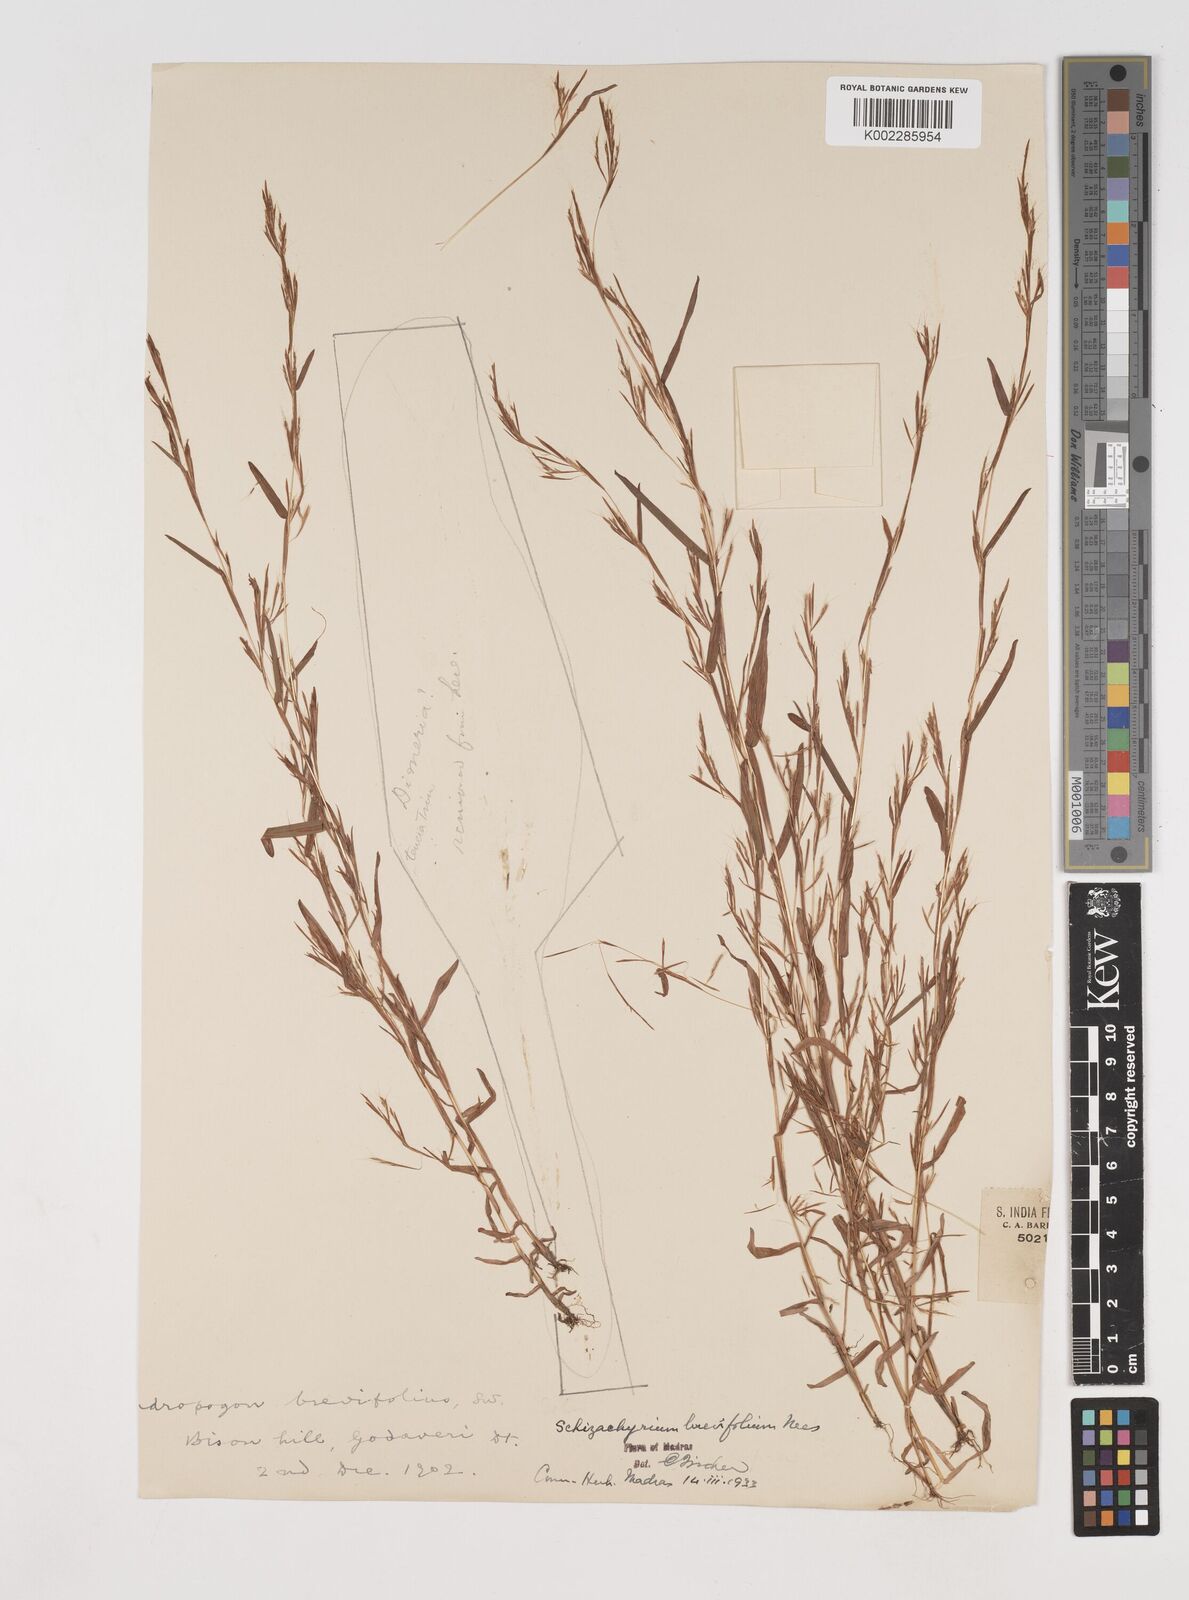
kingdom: Plantae
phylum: Tracheophyta
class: Liliopsida
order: Poales
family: Poaceae
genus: Schizachyrium
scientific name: Schizachyrium brevifolium
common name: Serillo dulce
